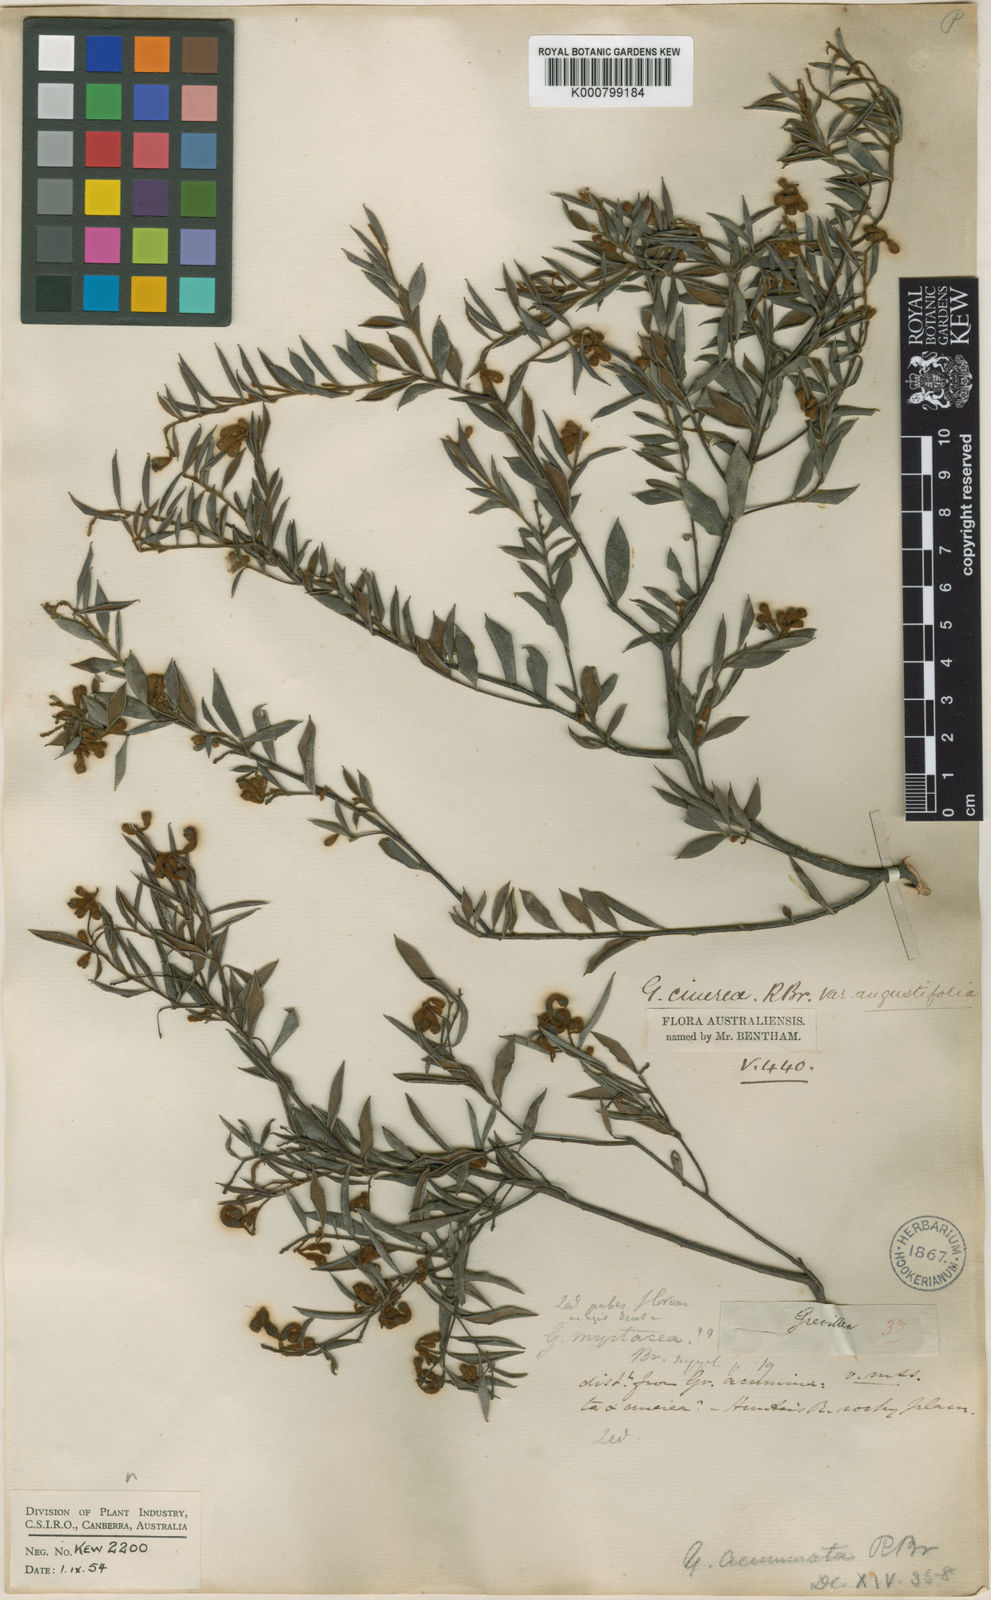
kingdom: Plantae
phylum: Tracheophyta
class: Magnoliopsida
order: Proteales
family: Proteaceae
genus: Grevillea
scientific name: Grevillea mucronulata
